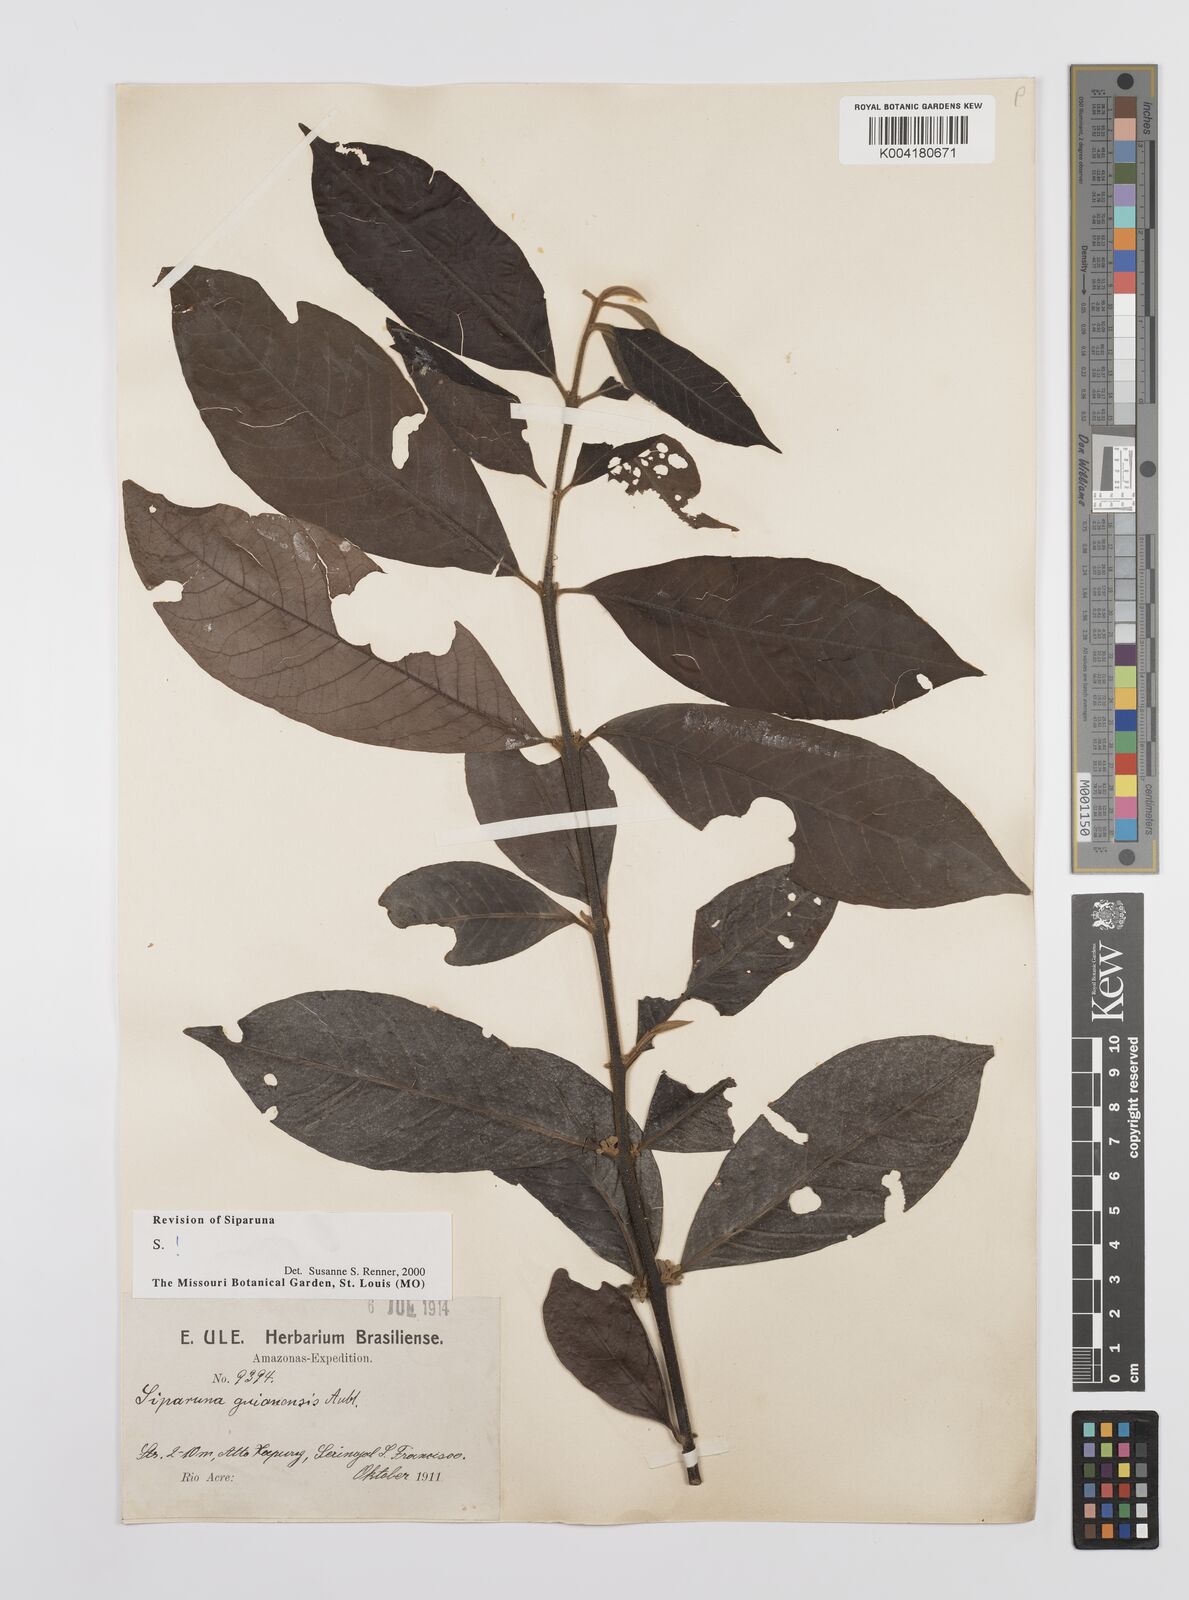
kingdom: Plantae
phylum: Tracheophyta
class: Magnoliopsida
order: Laurales
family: Siparunaceae
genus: Siparuna
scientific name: Siparuna guianensis
